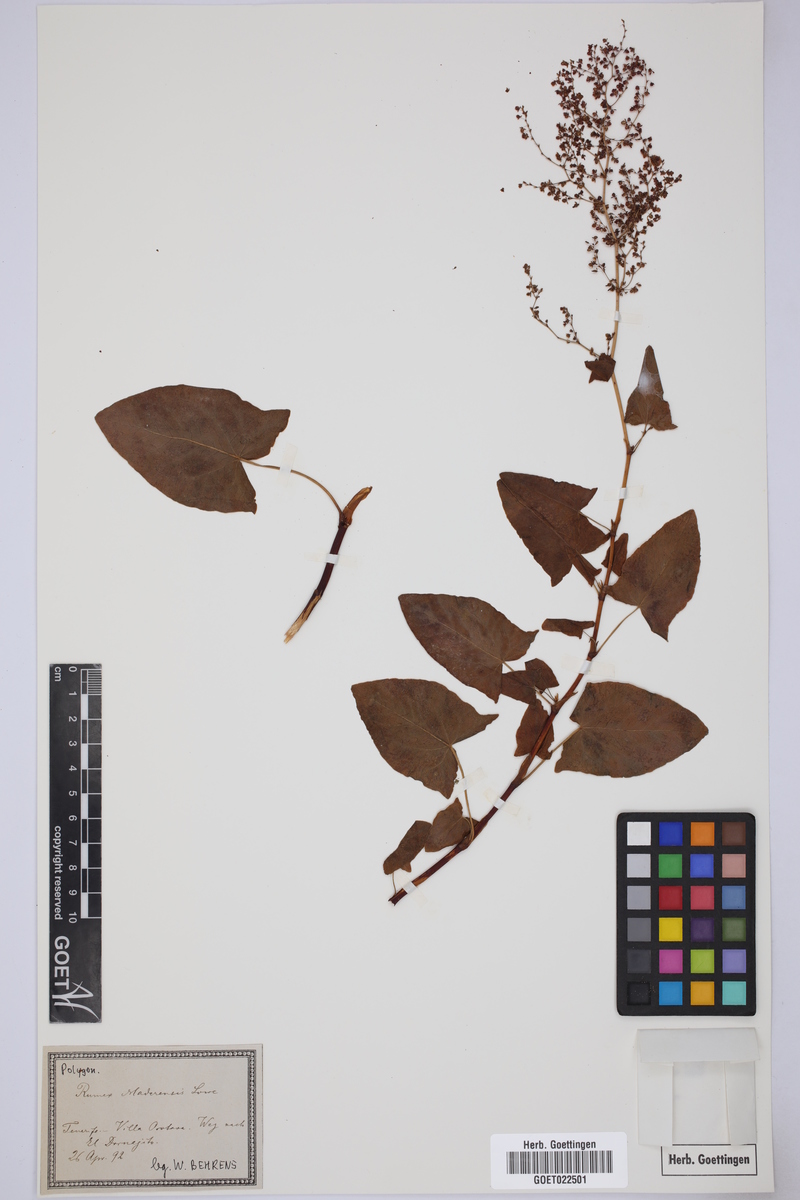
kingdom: Plantae
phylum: Tracheophyta
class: Magnoliopsida
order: Caryophyllales
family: Polygonaceae
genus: Rumex
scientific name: Rumex maderensis
